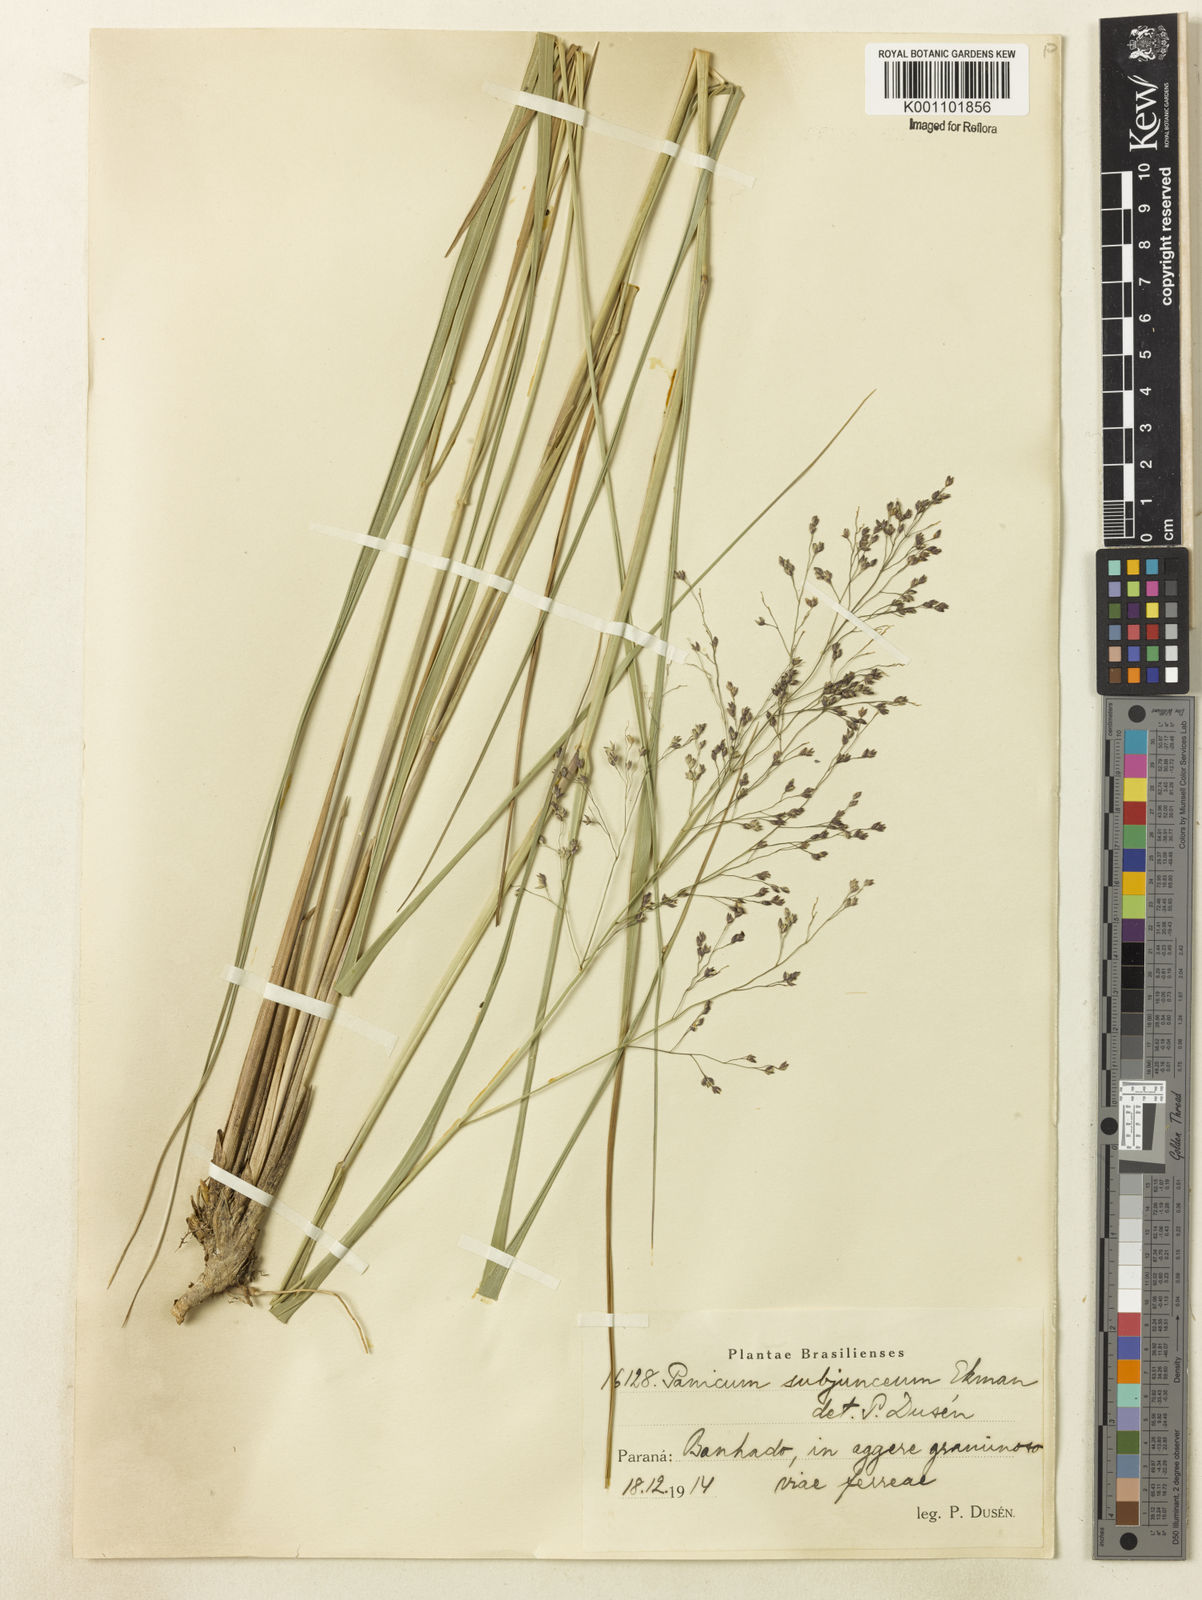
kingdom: Plantae
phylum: Tracheophyta
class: Liliopsida
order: Poales
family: Poaceae
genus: Panicum
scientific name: Panicum glabripes
